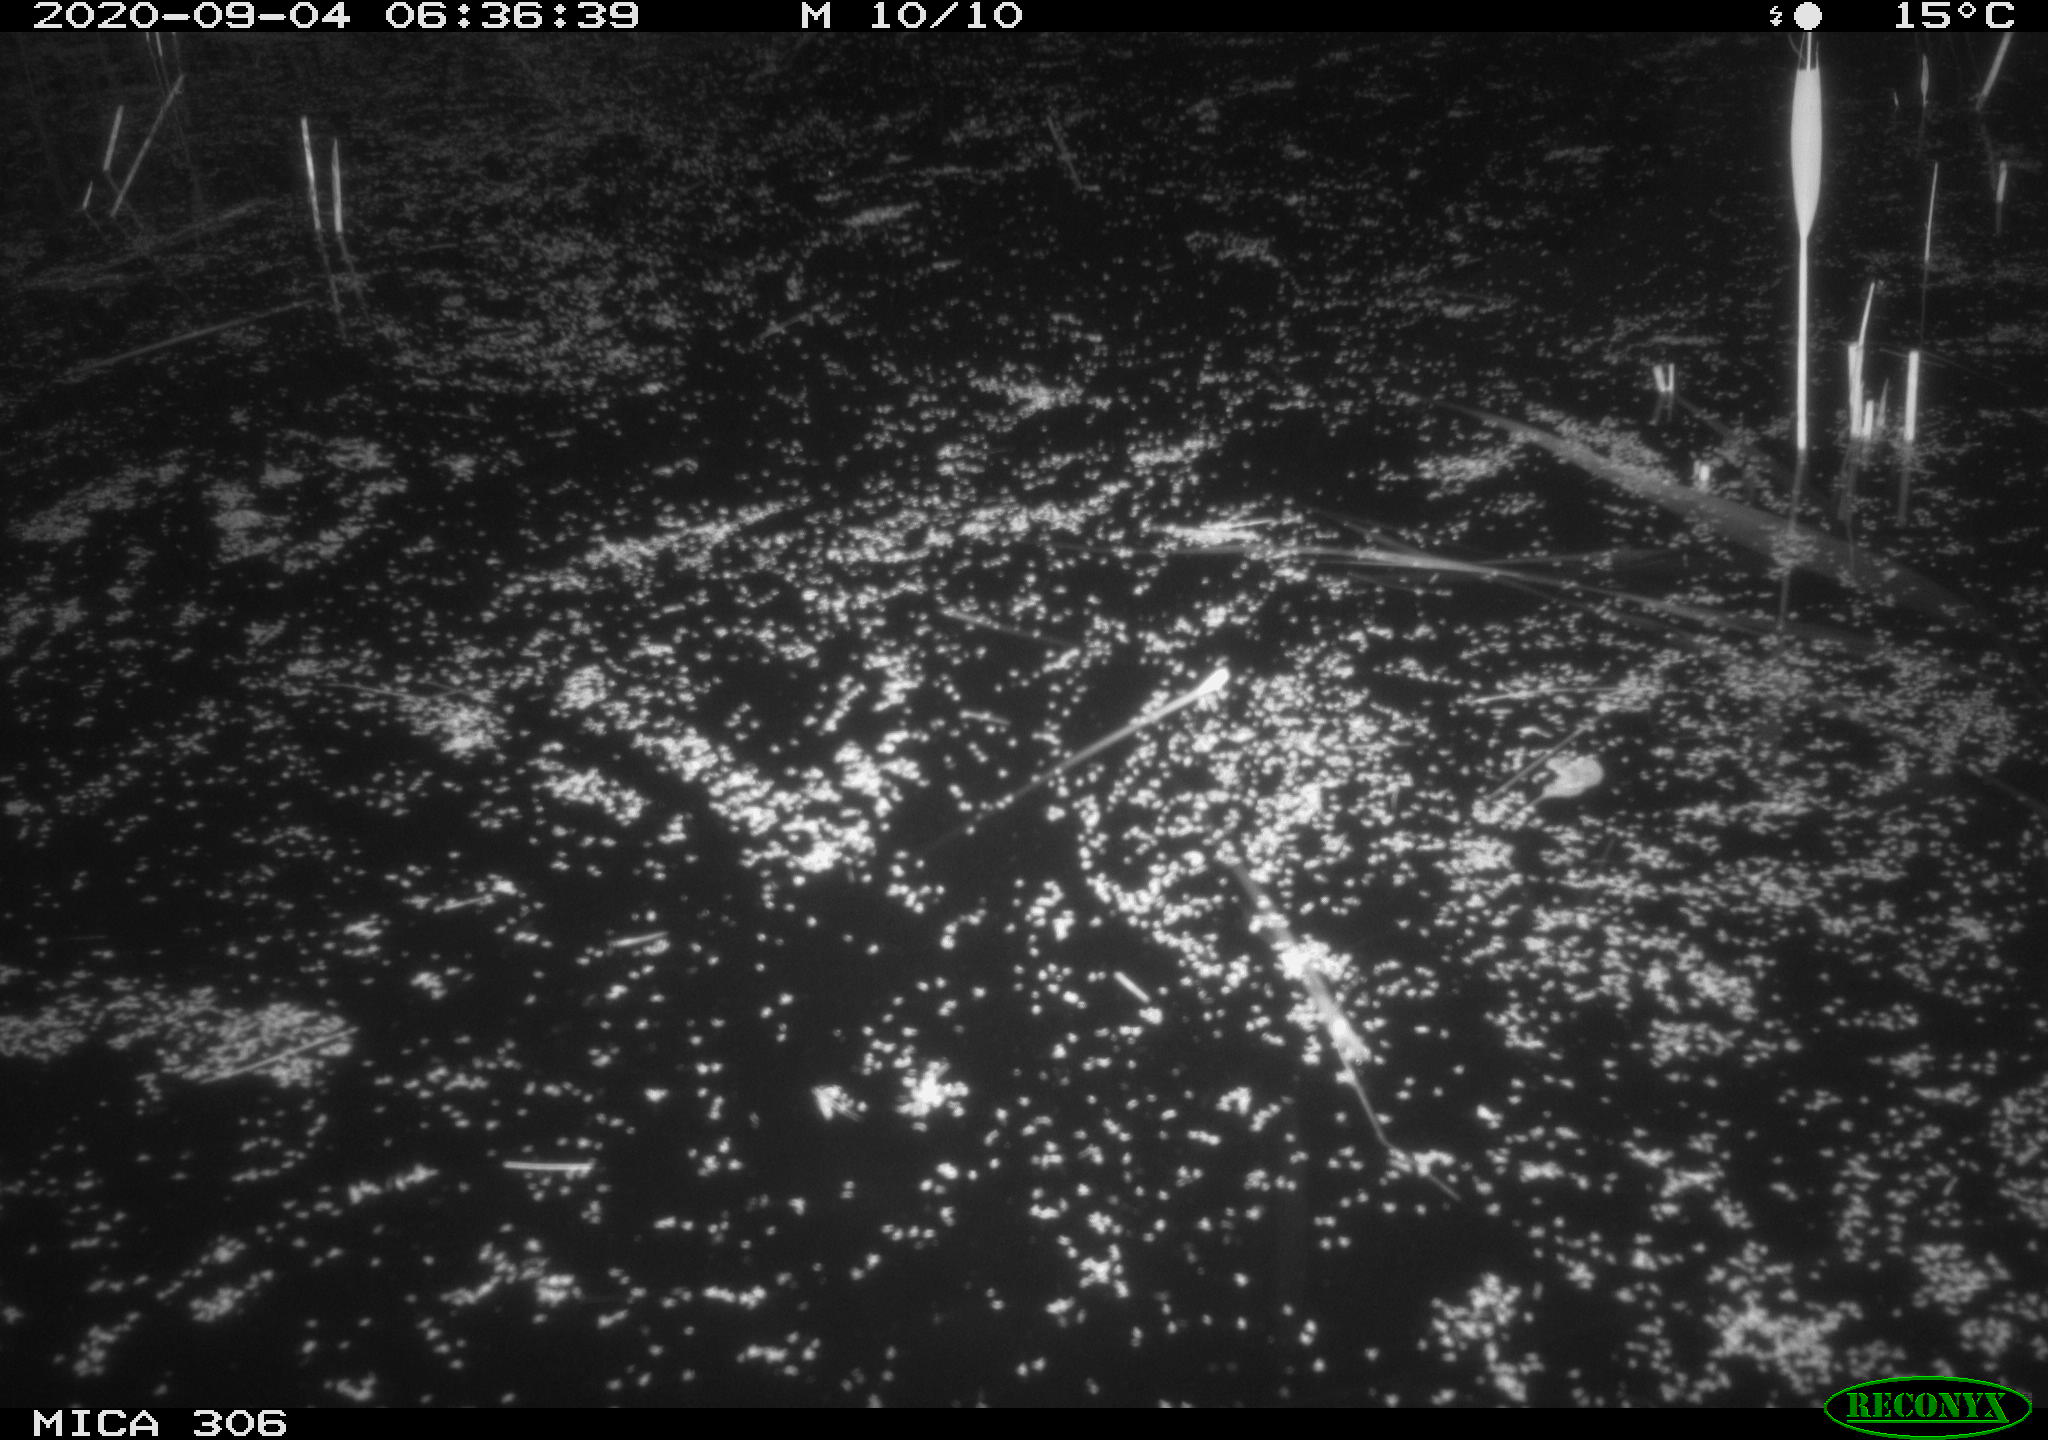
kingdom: Animalia
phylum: Chordata
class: Aves
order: Gruiformes
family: Rallidae
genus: Gallinula
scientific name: Gallinula chloropus
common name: Common moorhen
